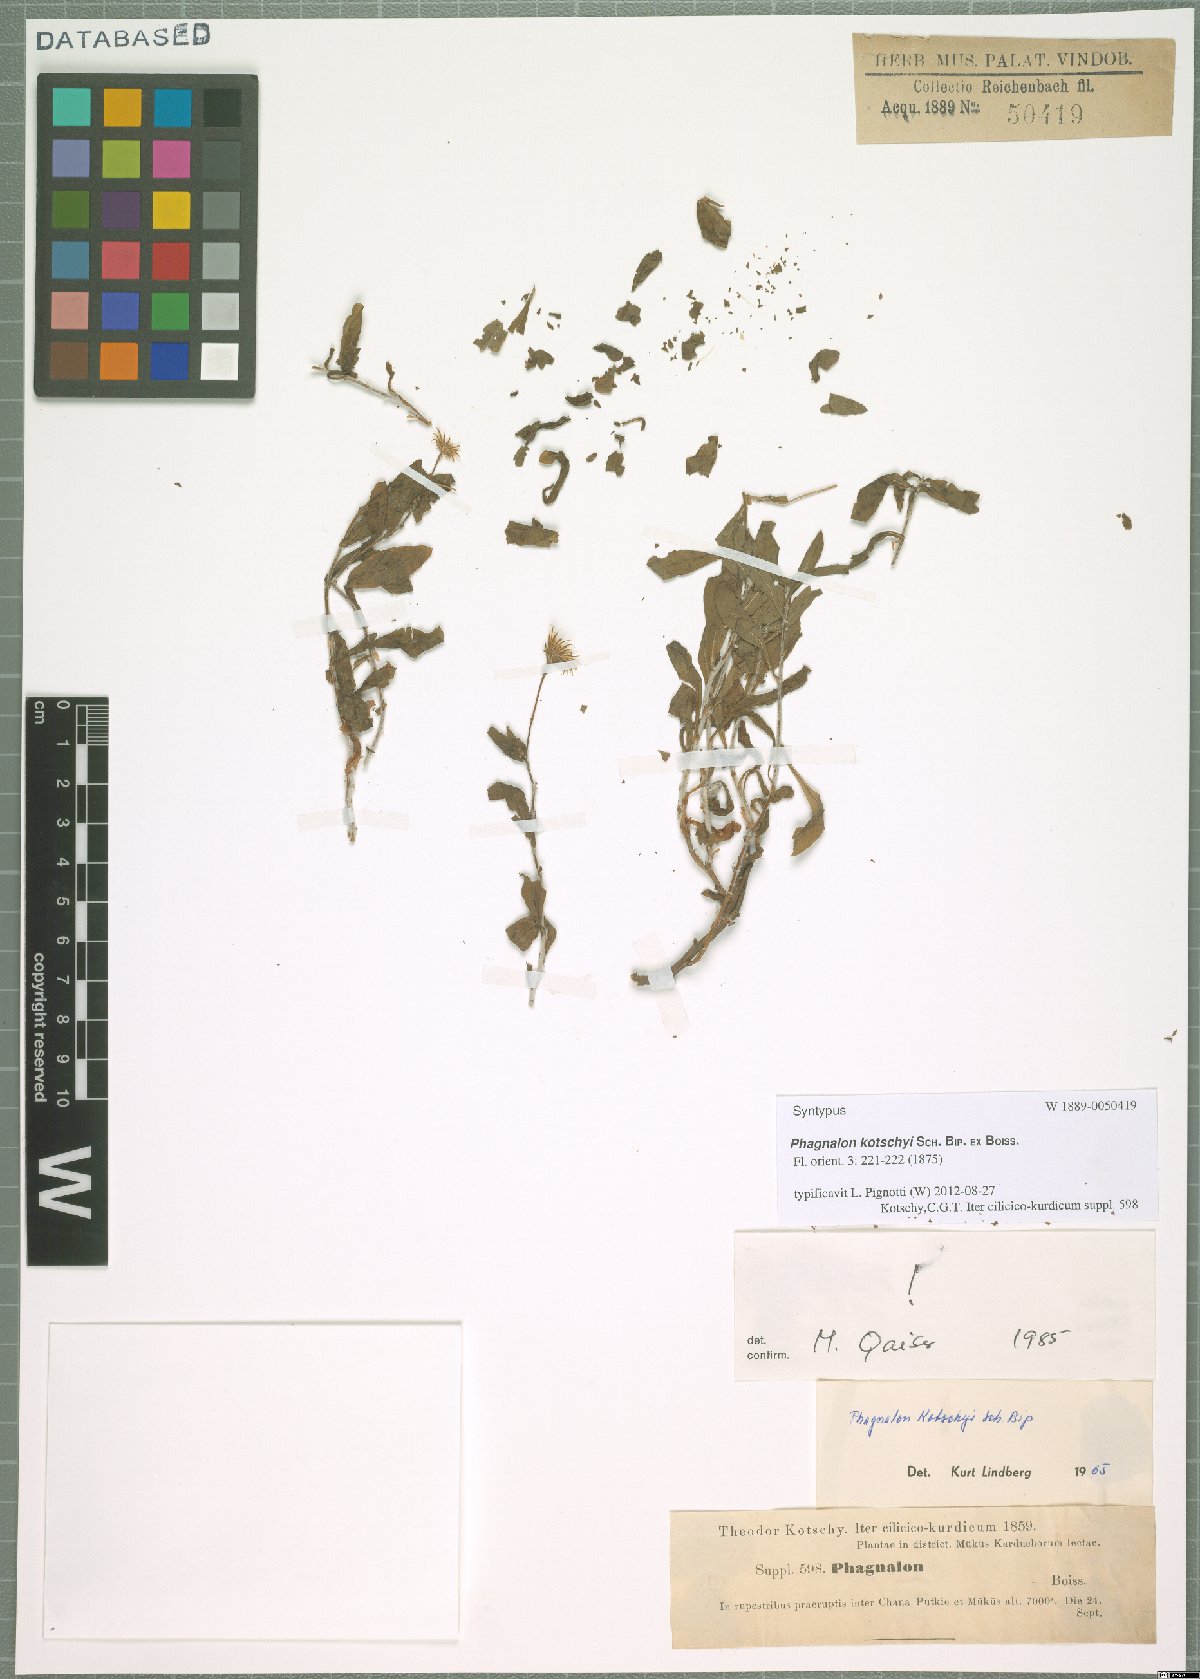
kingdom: Plantae
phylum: Tracheophyta
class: Magnoliopsida
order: Asterales
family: Asteraceae
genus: Phagnalon
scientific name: Phagnalon kotschyi
